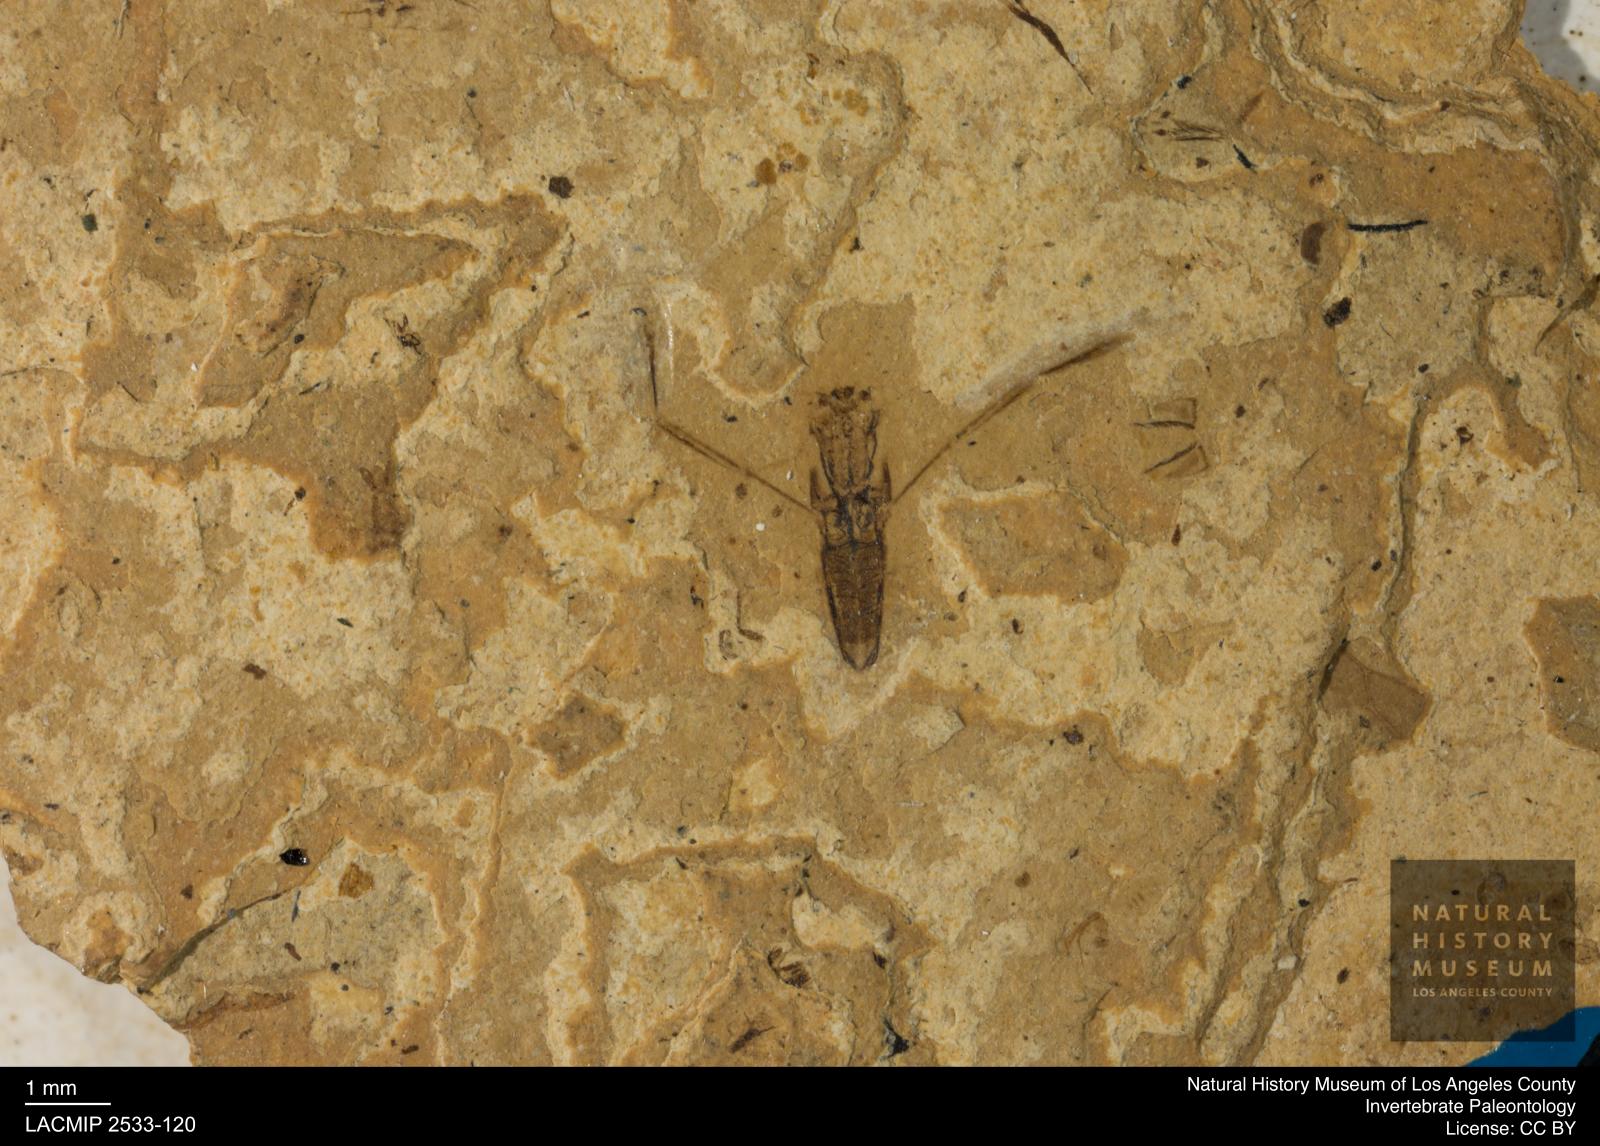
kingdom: Animalia
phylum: Arthropoda
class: Insecta
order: Hemiptera
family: Notonectidae
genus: Anisops
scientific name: Anisops Notonecta heydeni
